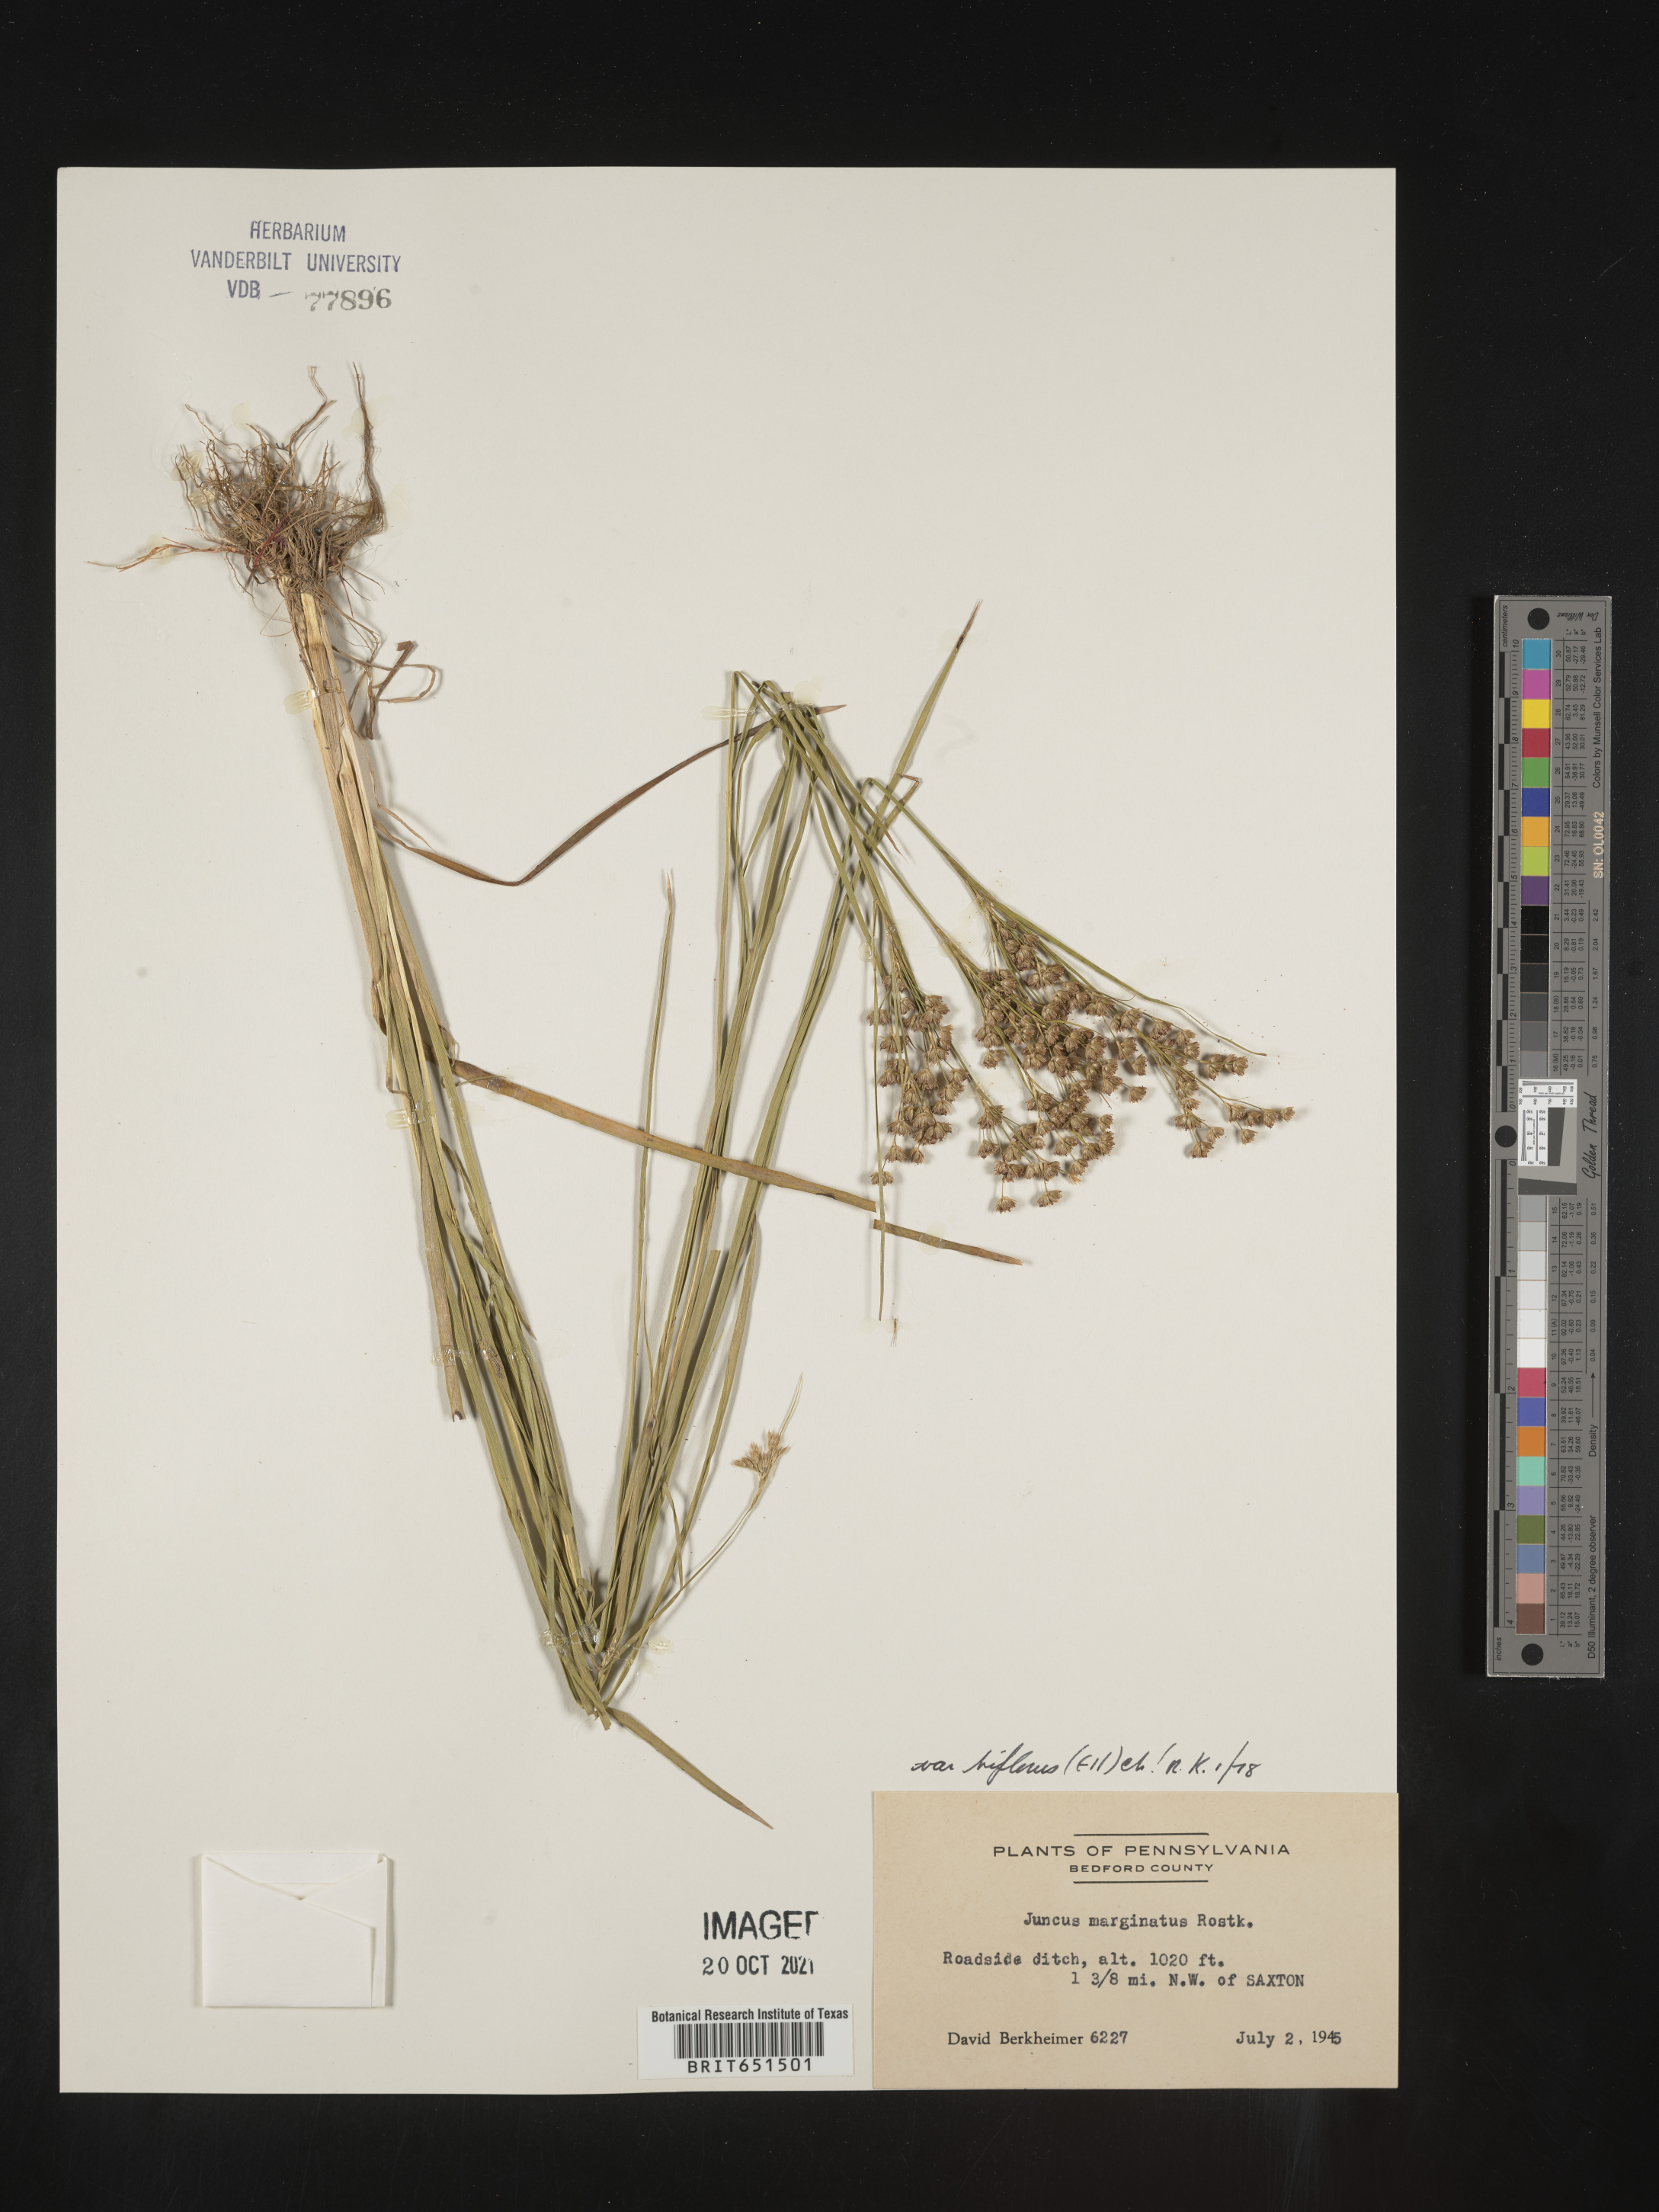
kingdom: Plantae
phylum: Tracheophyta
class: Liliopsida
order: Poales
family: Juncaceae
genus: Juncus
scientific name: Juncus biflorus
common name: Two-flowered rush
